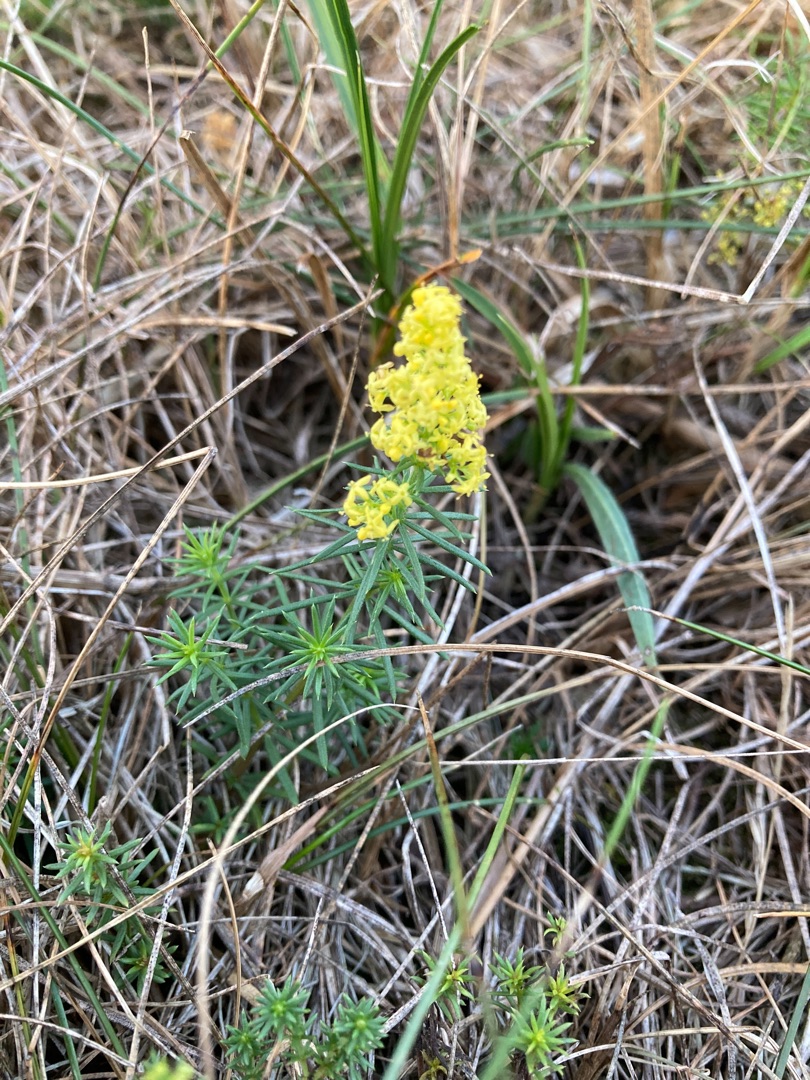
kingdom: Plantae
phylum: Tracheophyta
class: Magnoliopsida
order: Gentianales
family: Rubiaceae
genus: Galium
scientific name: Galium verum
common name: Gul snerre
